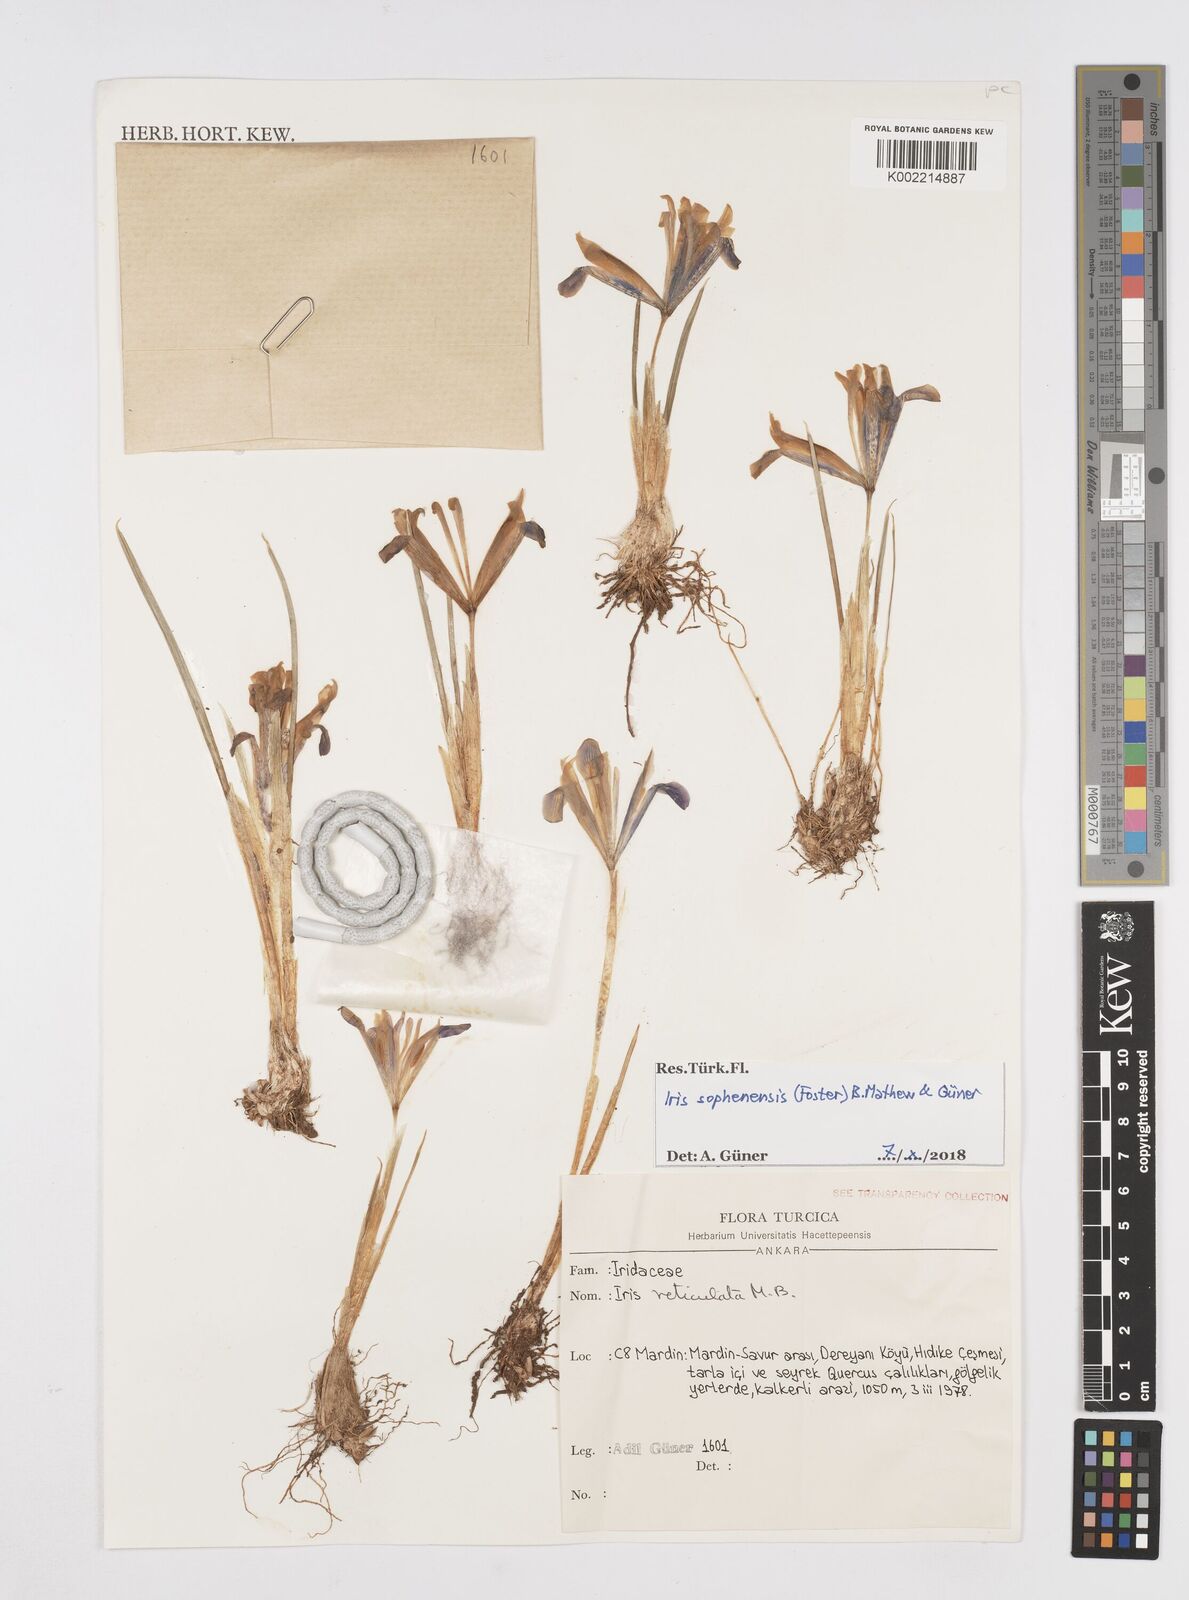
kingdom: Plantae
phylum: Tracheophyta
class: Liliopsida
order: Asparagales
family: Iridaceae
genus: Iris
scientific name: Iris sophenensis
